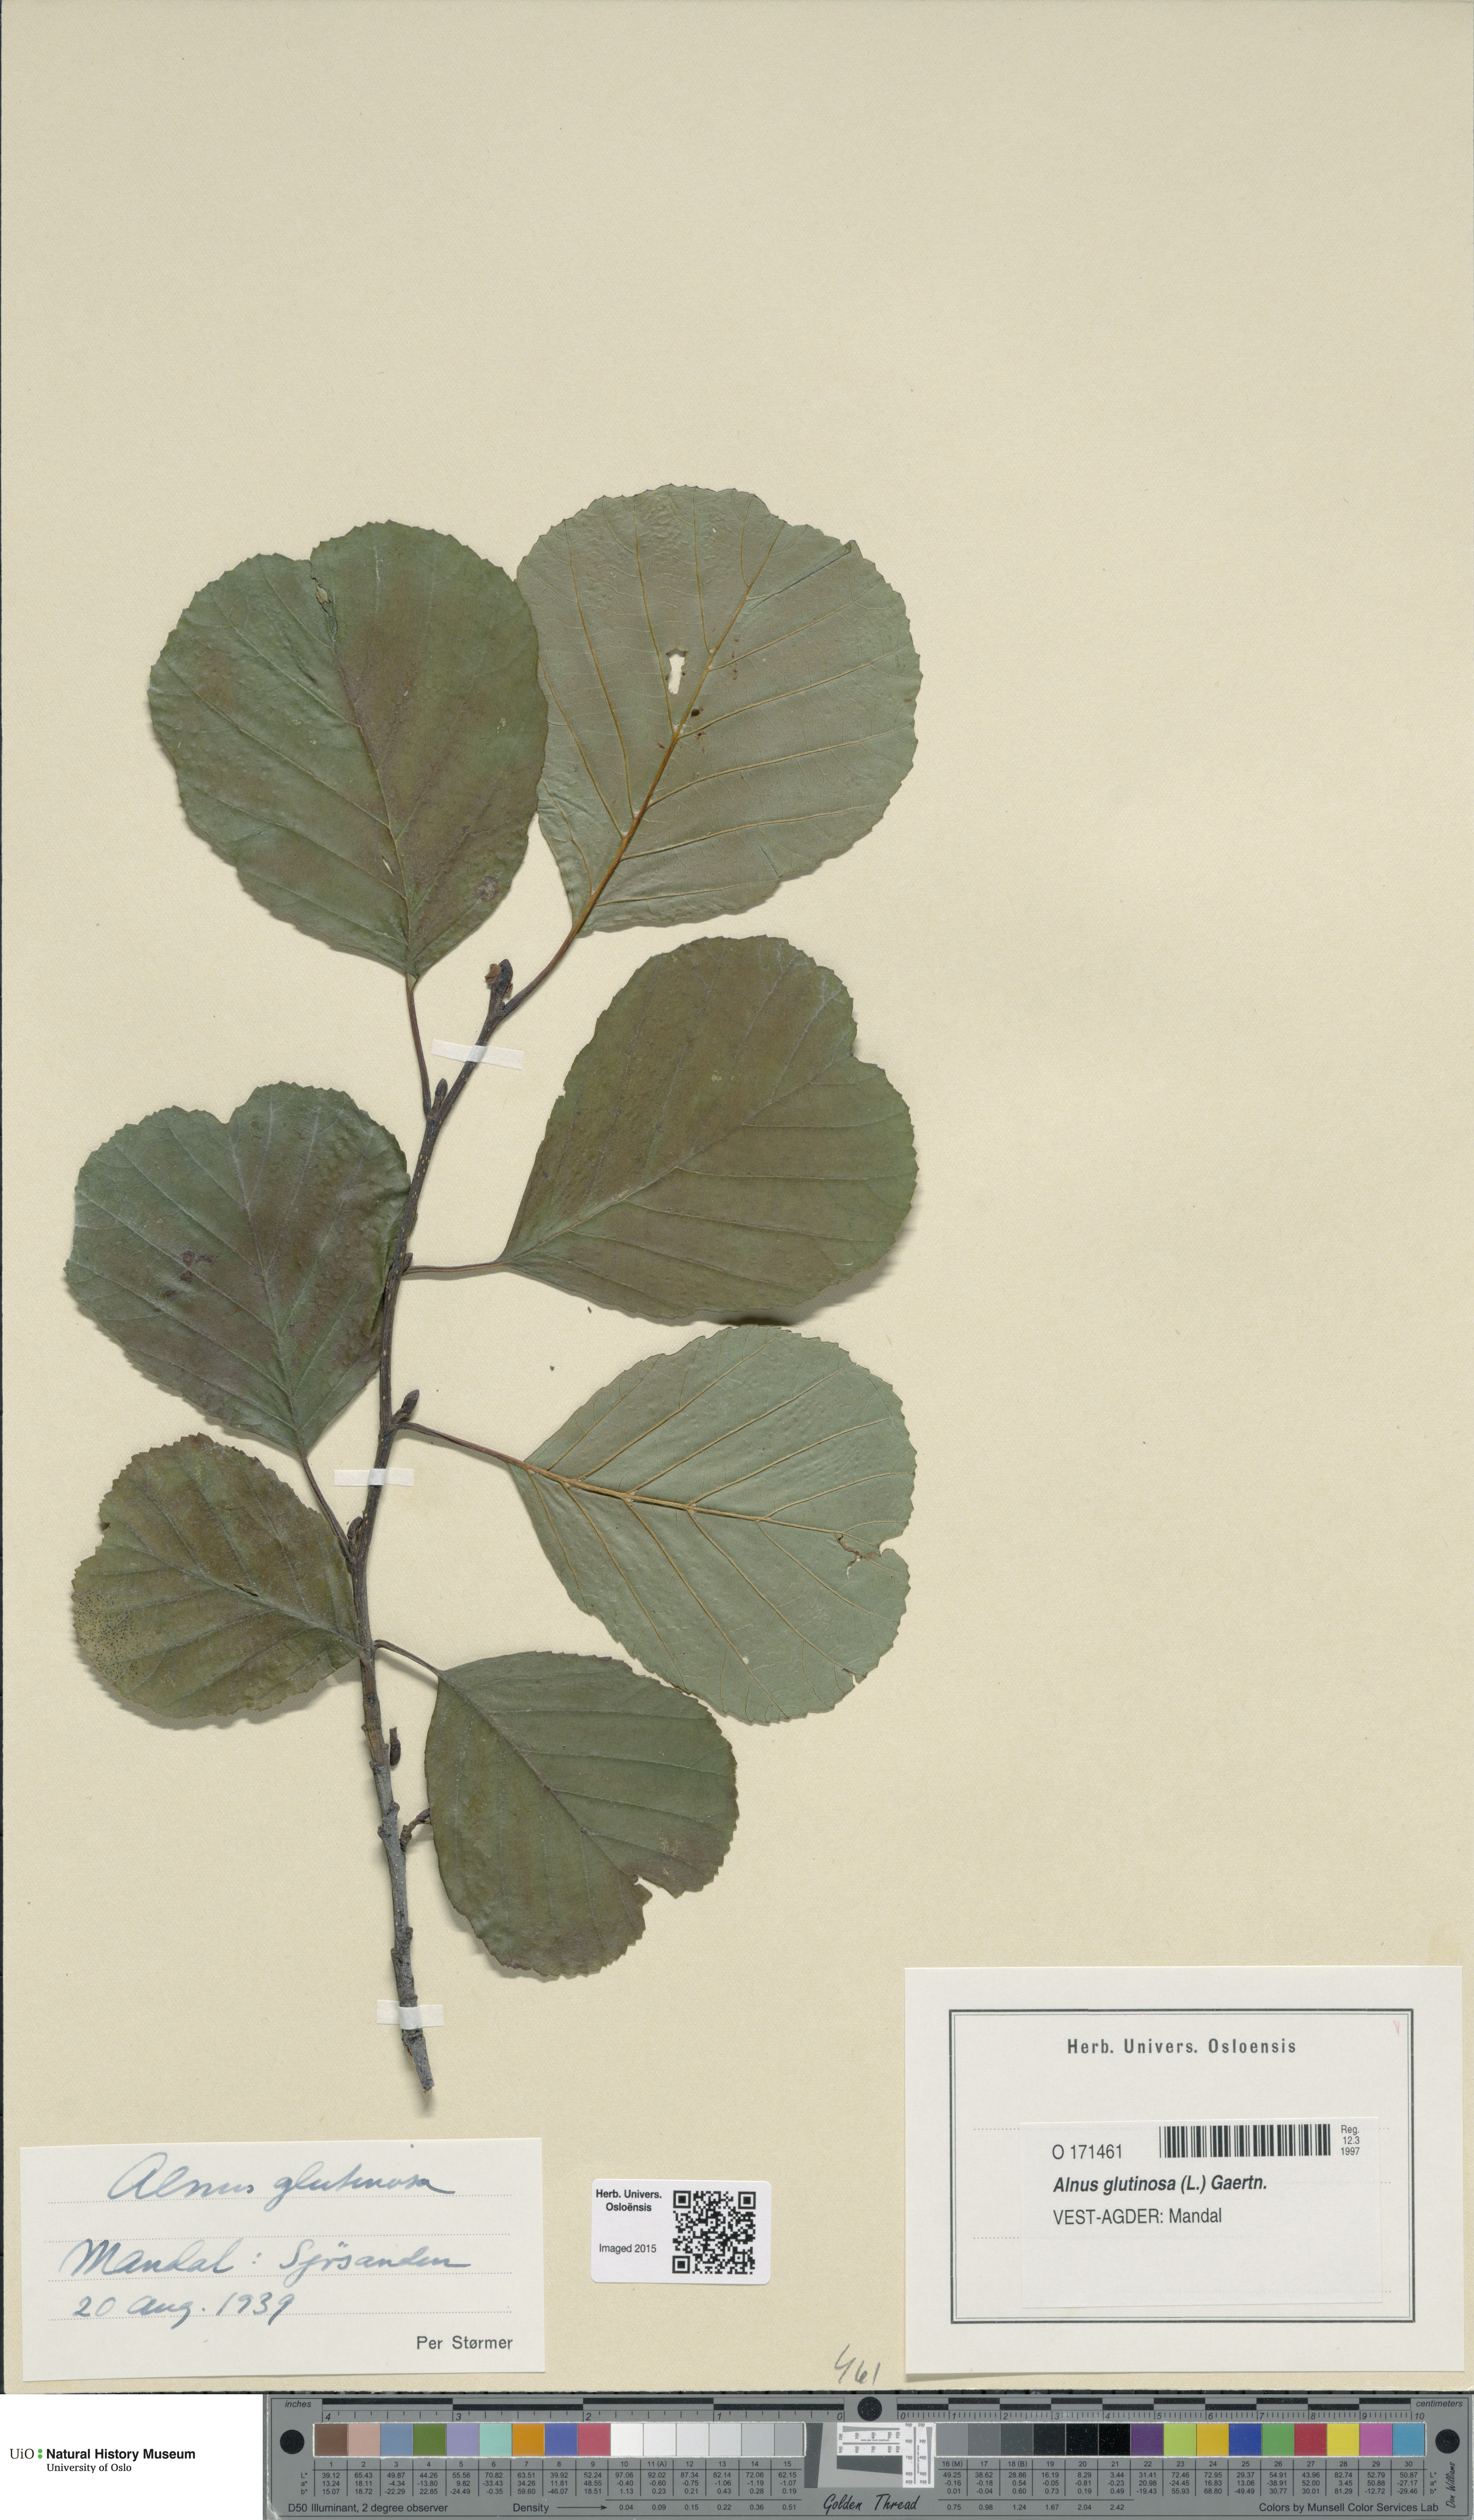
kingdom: Plantae
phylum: Tracheophyta
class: Magnoliopsida
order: Fagales
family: Betulaceae
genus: Alnus
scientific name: Alnus glutinosa
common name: Black alder
